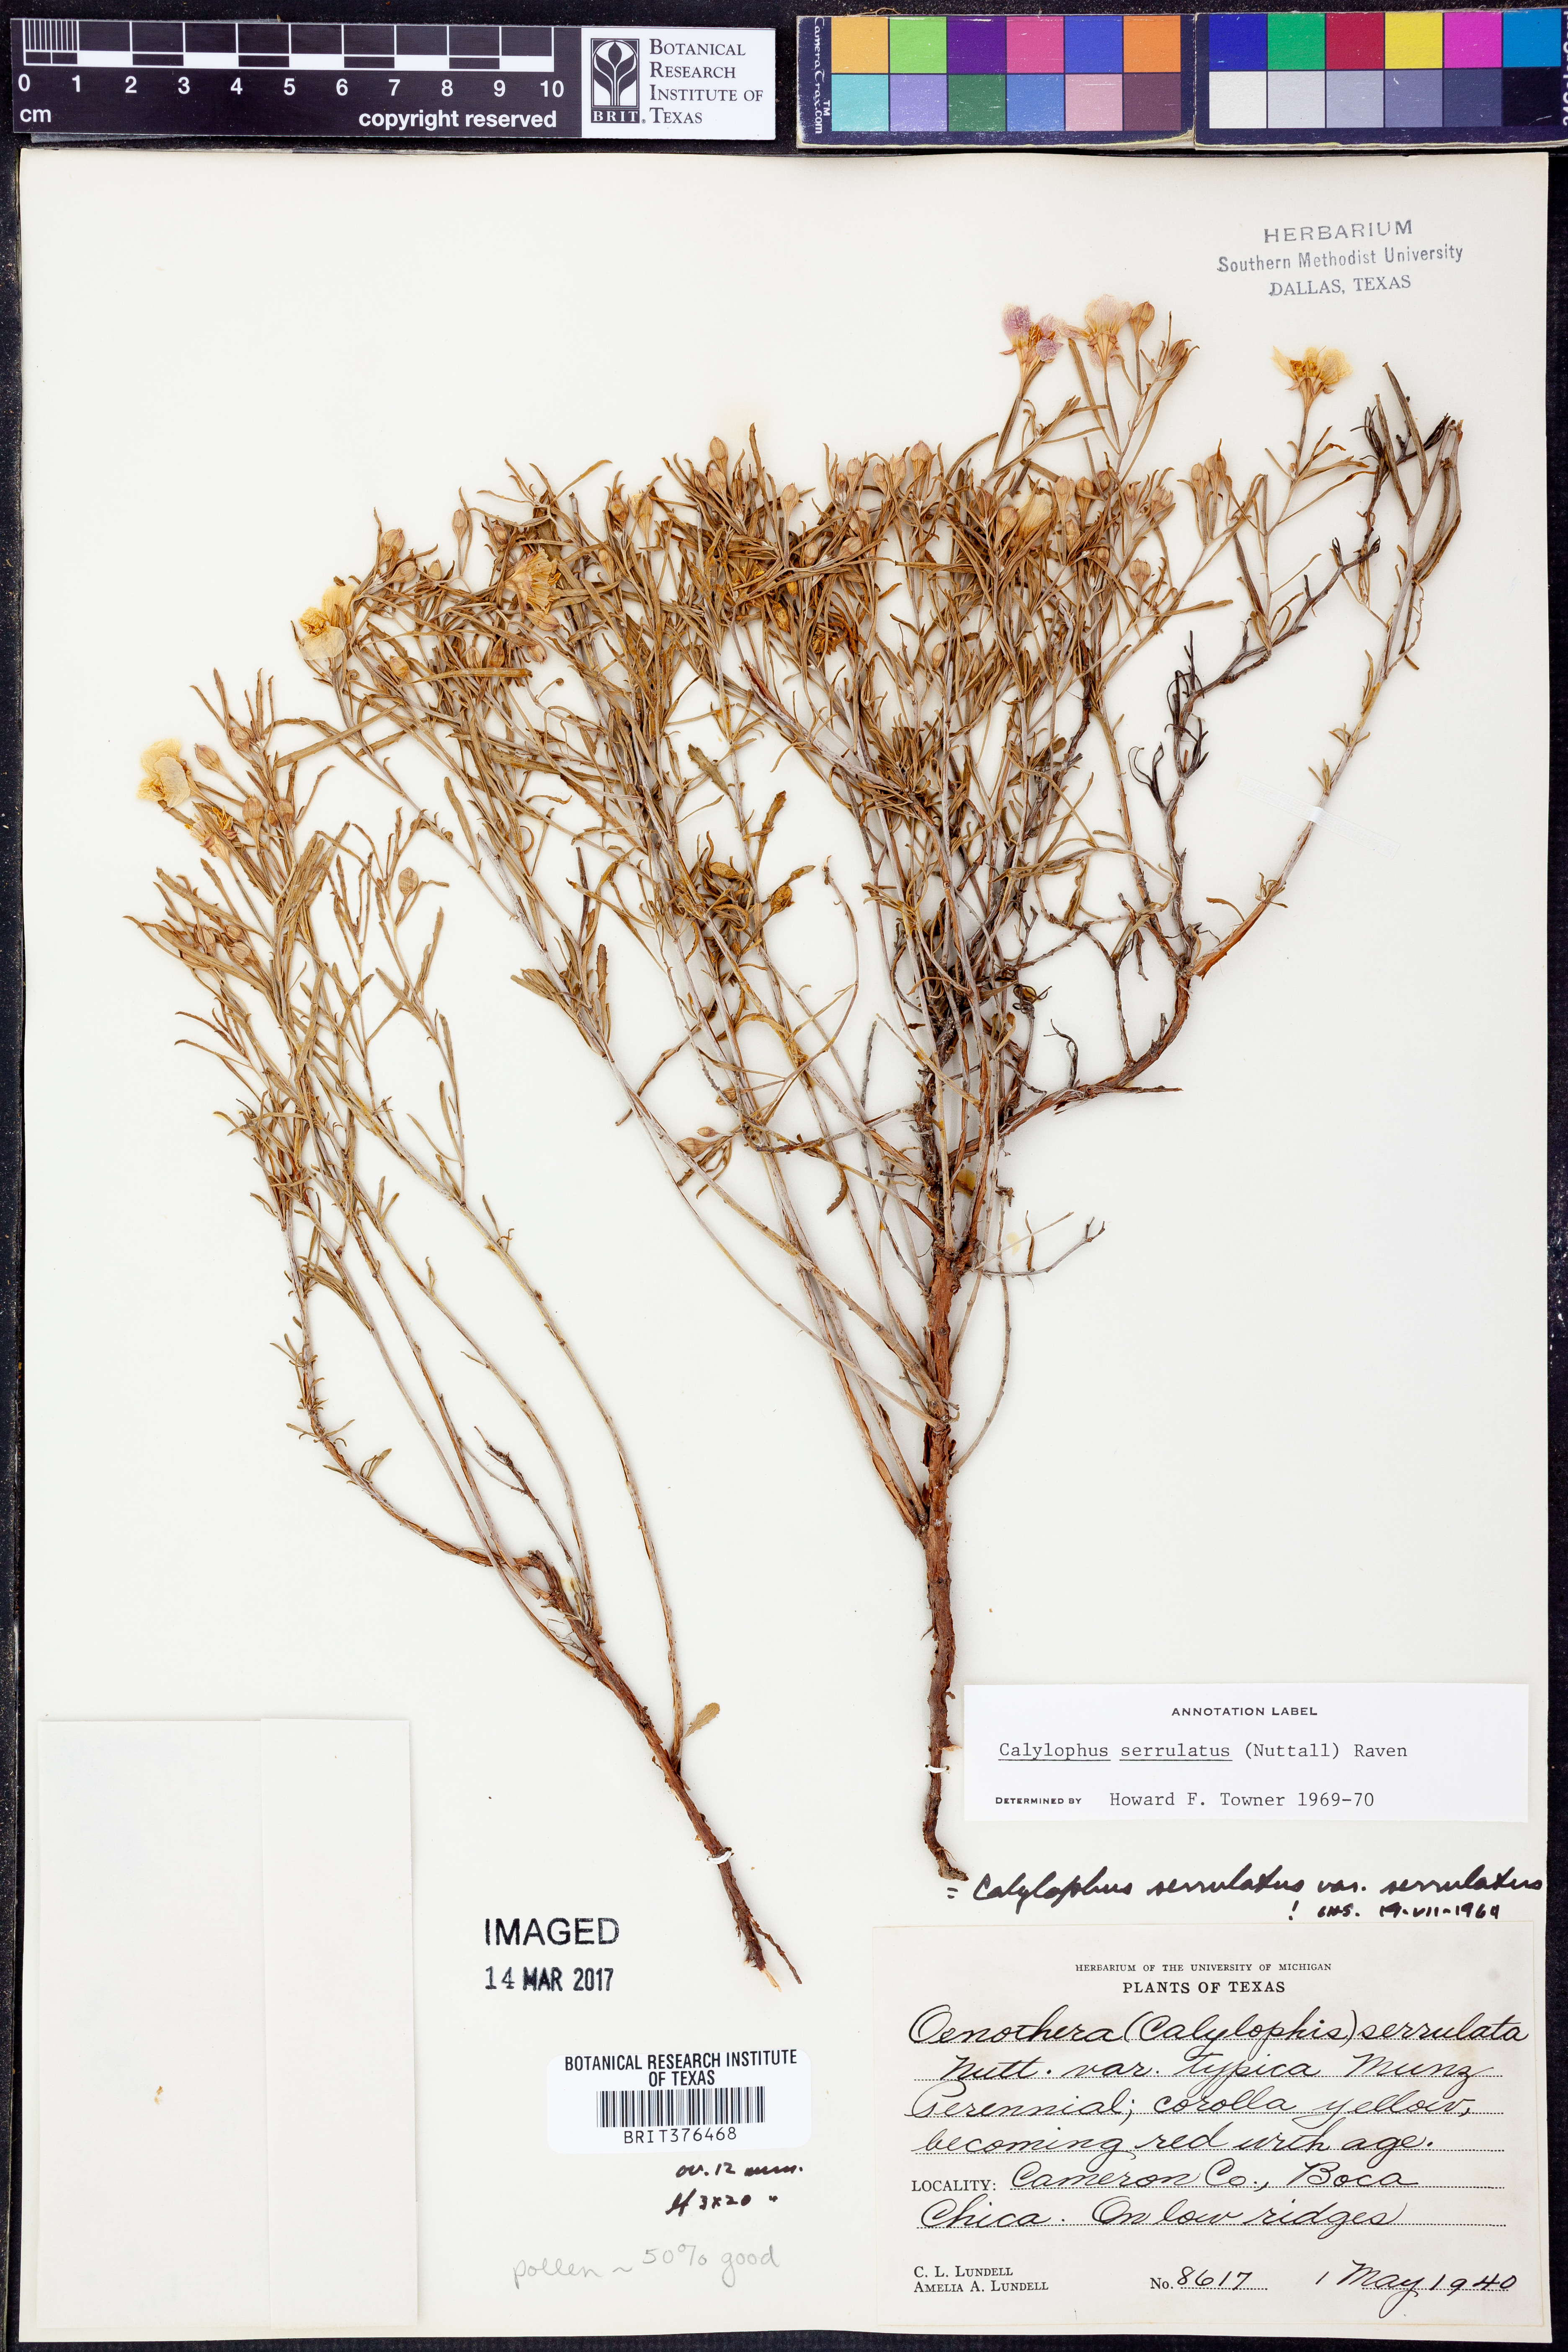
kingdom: Plantae
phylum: Tracheophyta
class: Magnoliopsida
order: Myrtales
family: Onagraceae
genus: Oenothera
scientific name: Oenothera serrulata
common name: Half-shrub calylophus
